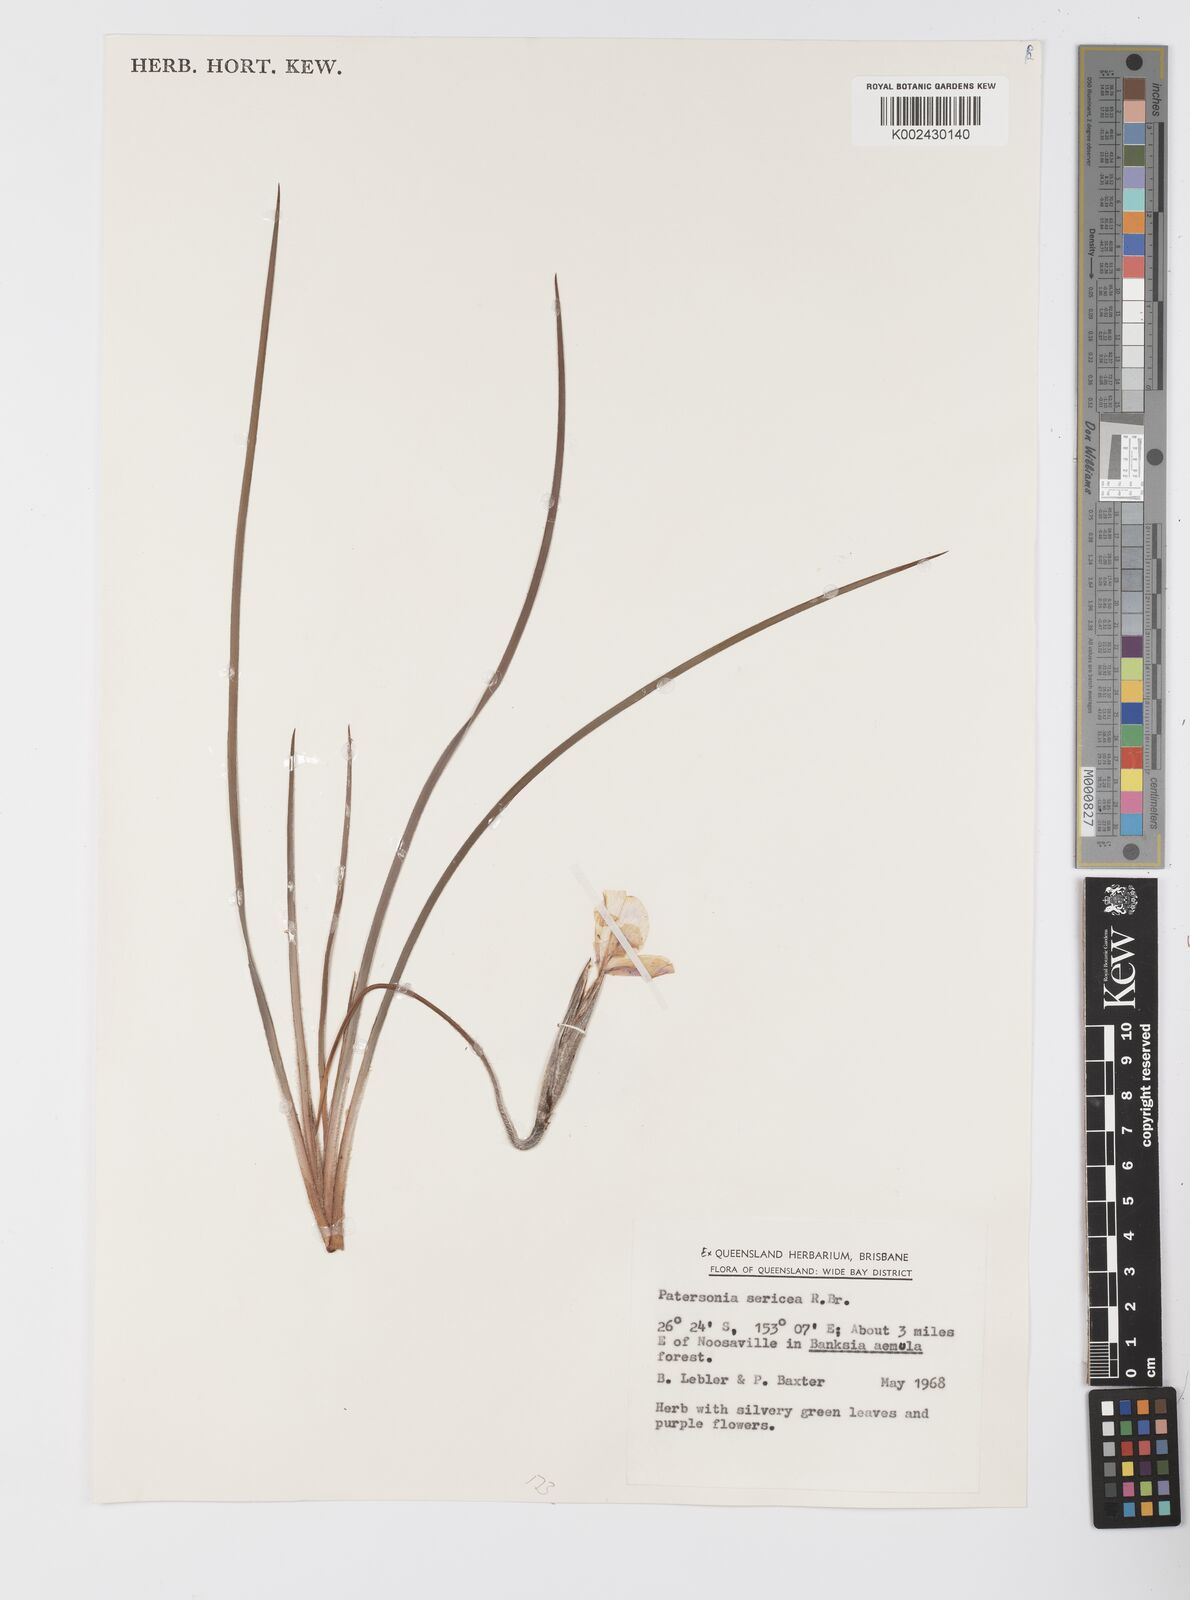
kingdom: Plantae
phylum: Tracheophyta
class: Liliopsida
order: Asparagales
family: Iridaceae
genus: Patersonia
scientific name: Patersonia sericea
